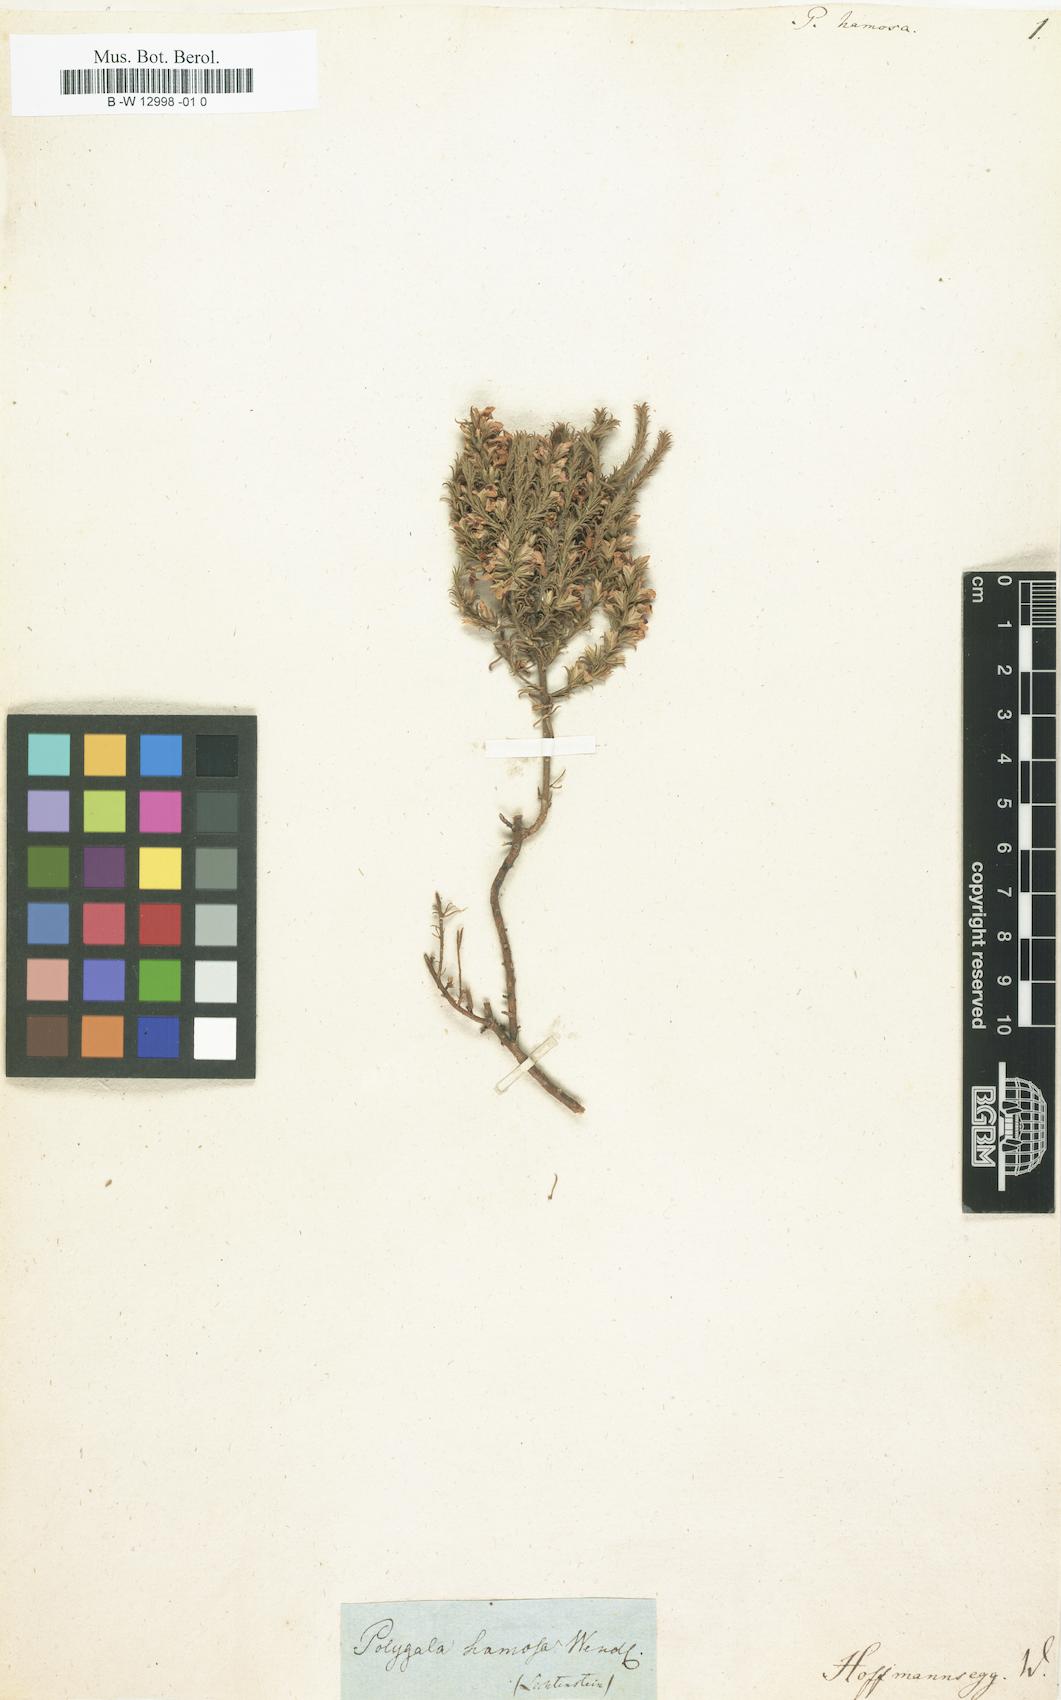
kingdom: Plantae
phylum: Tracheophyta
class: Magnoliopsida
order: Fabales
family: Polygalaceae
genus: Polygala
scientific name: Polygala uncinata
